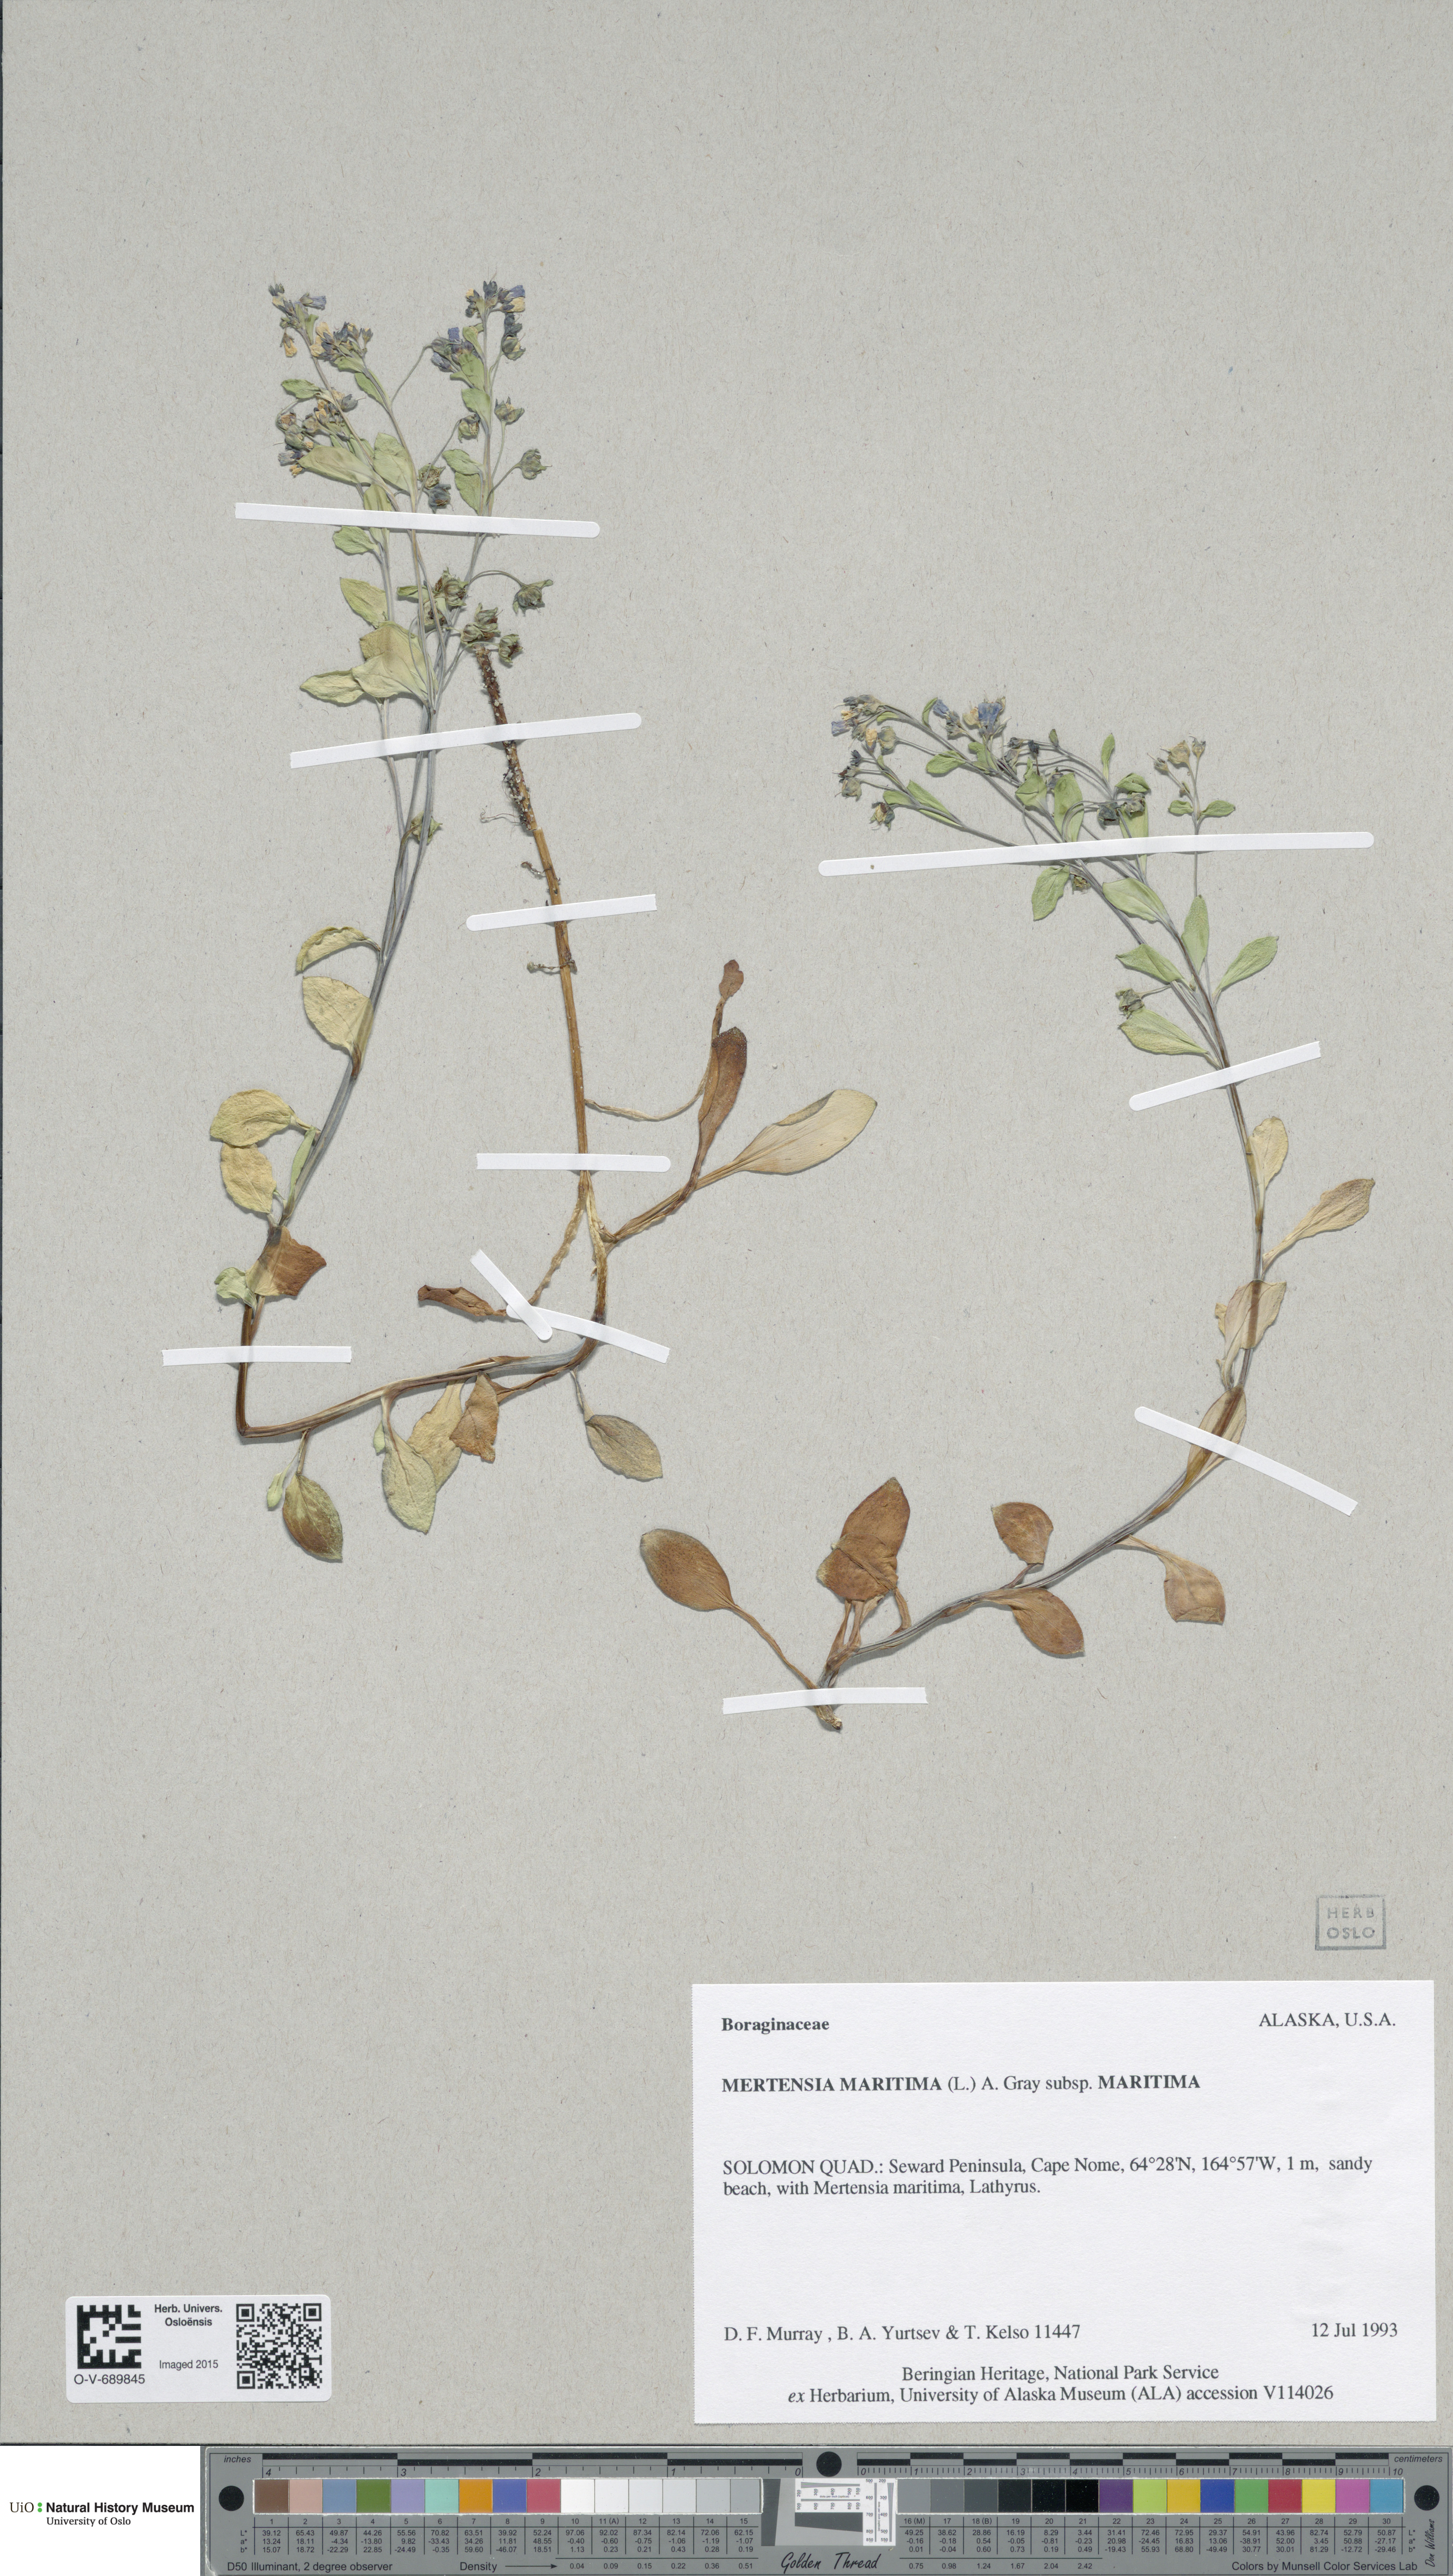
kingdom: Plantae
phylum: Tracheophyta
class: Magnoliopsida
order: Boraginales
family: Boraginaceae
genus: Mertensia
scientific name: Mertensia maritima
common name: Oysterplant
